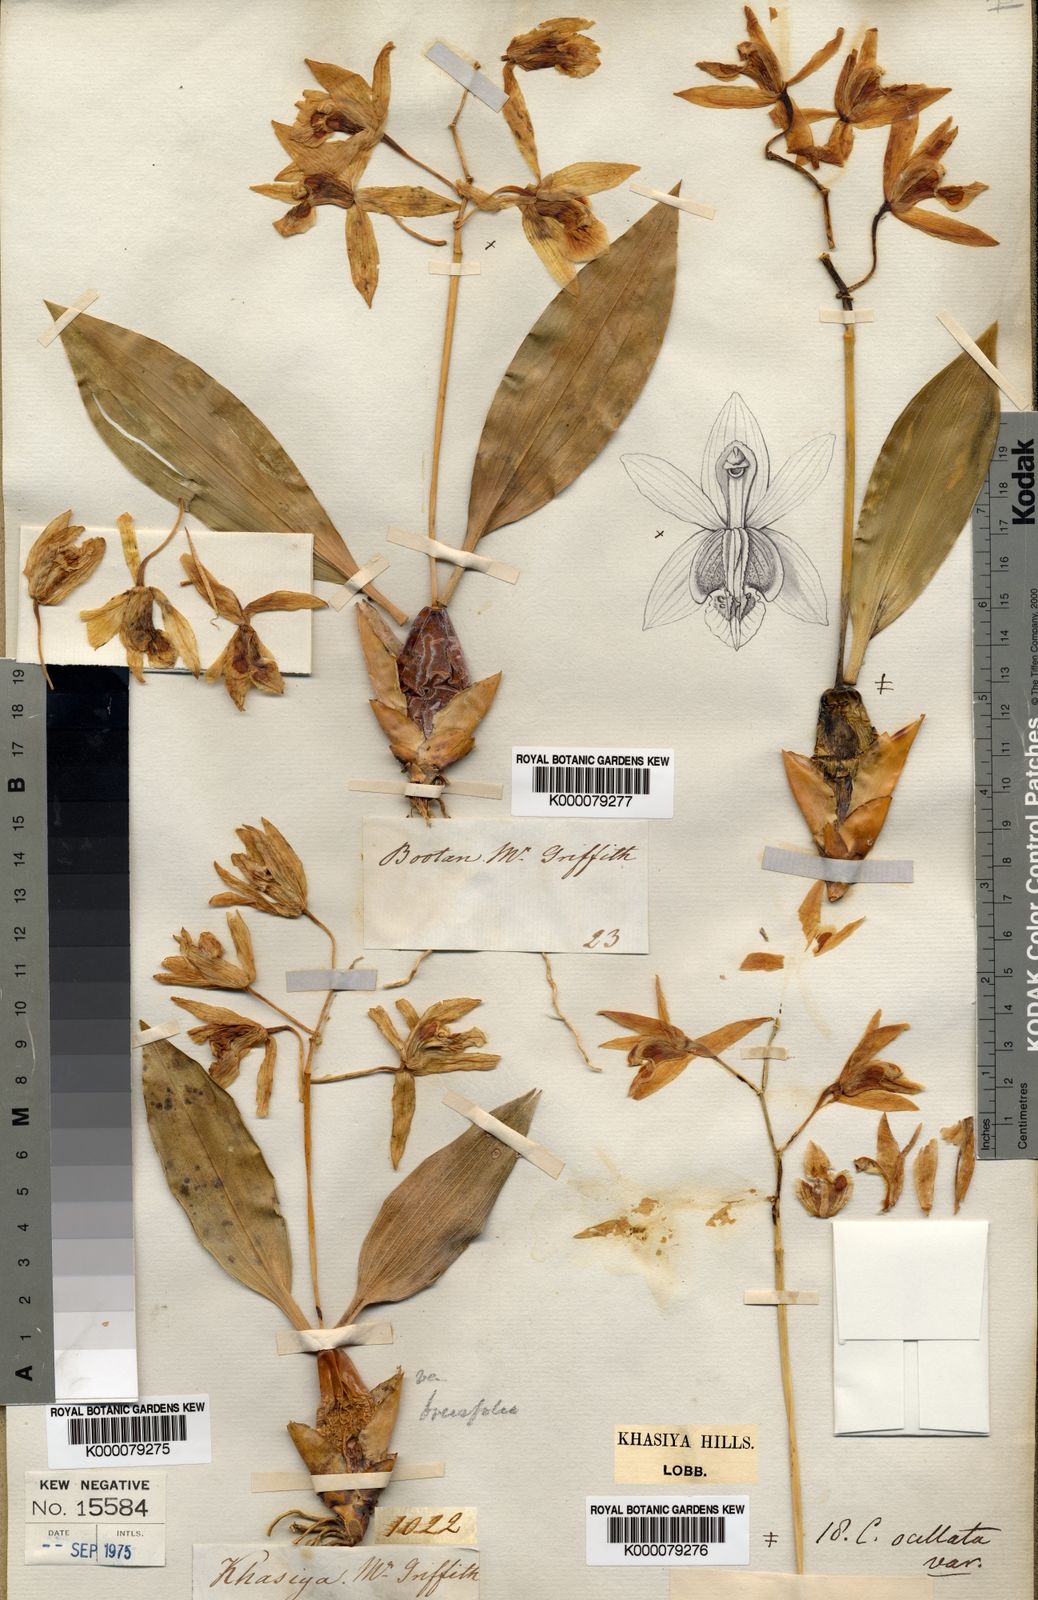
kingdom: Plantae
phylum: Tracheophyta
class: Liliopsida
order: Asparagales
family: Orchidaceae
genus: Coelogyne
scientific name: Coelogyne punctulata
